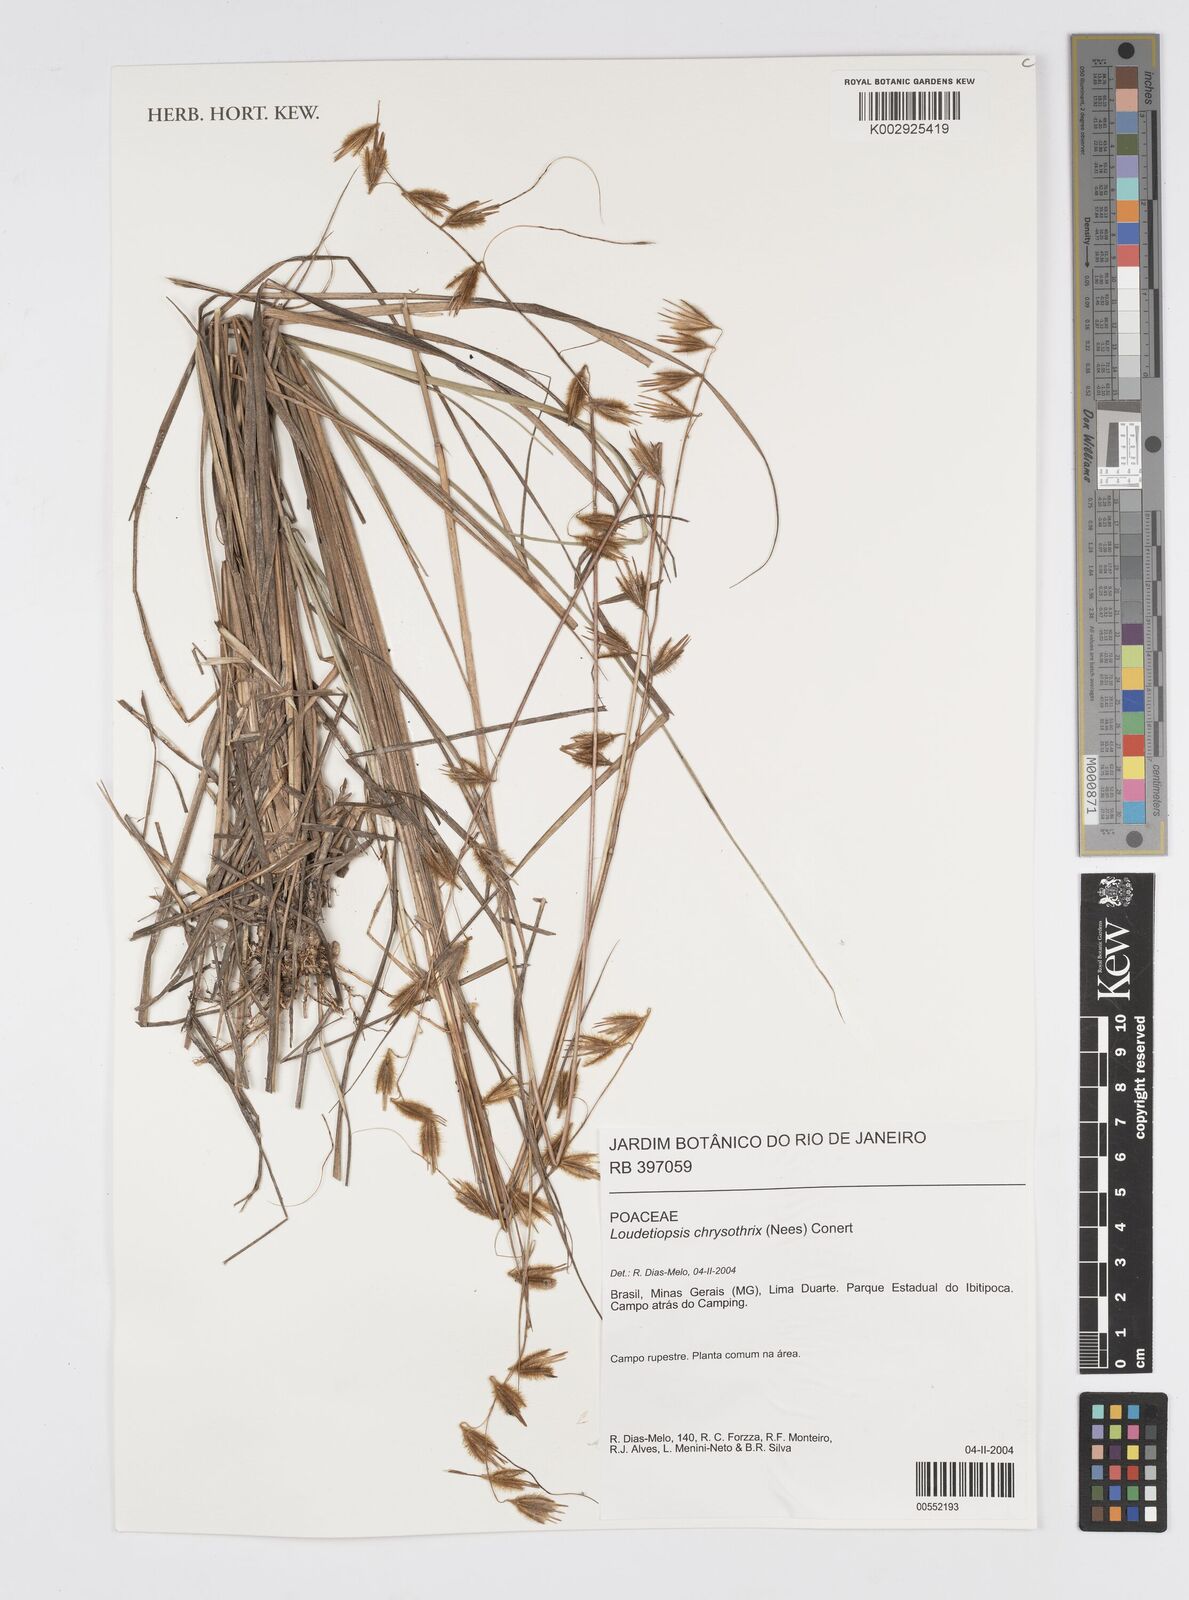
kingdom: Plantae
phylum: Tracheophyta
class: Liliopsida
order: Poales
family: Poaceae
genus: Loudetiopsis
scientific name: Loudetiopsis chrysothrix
